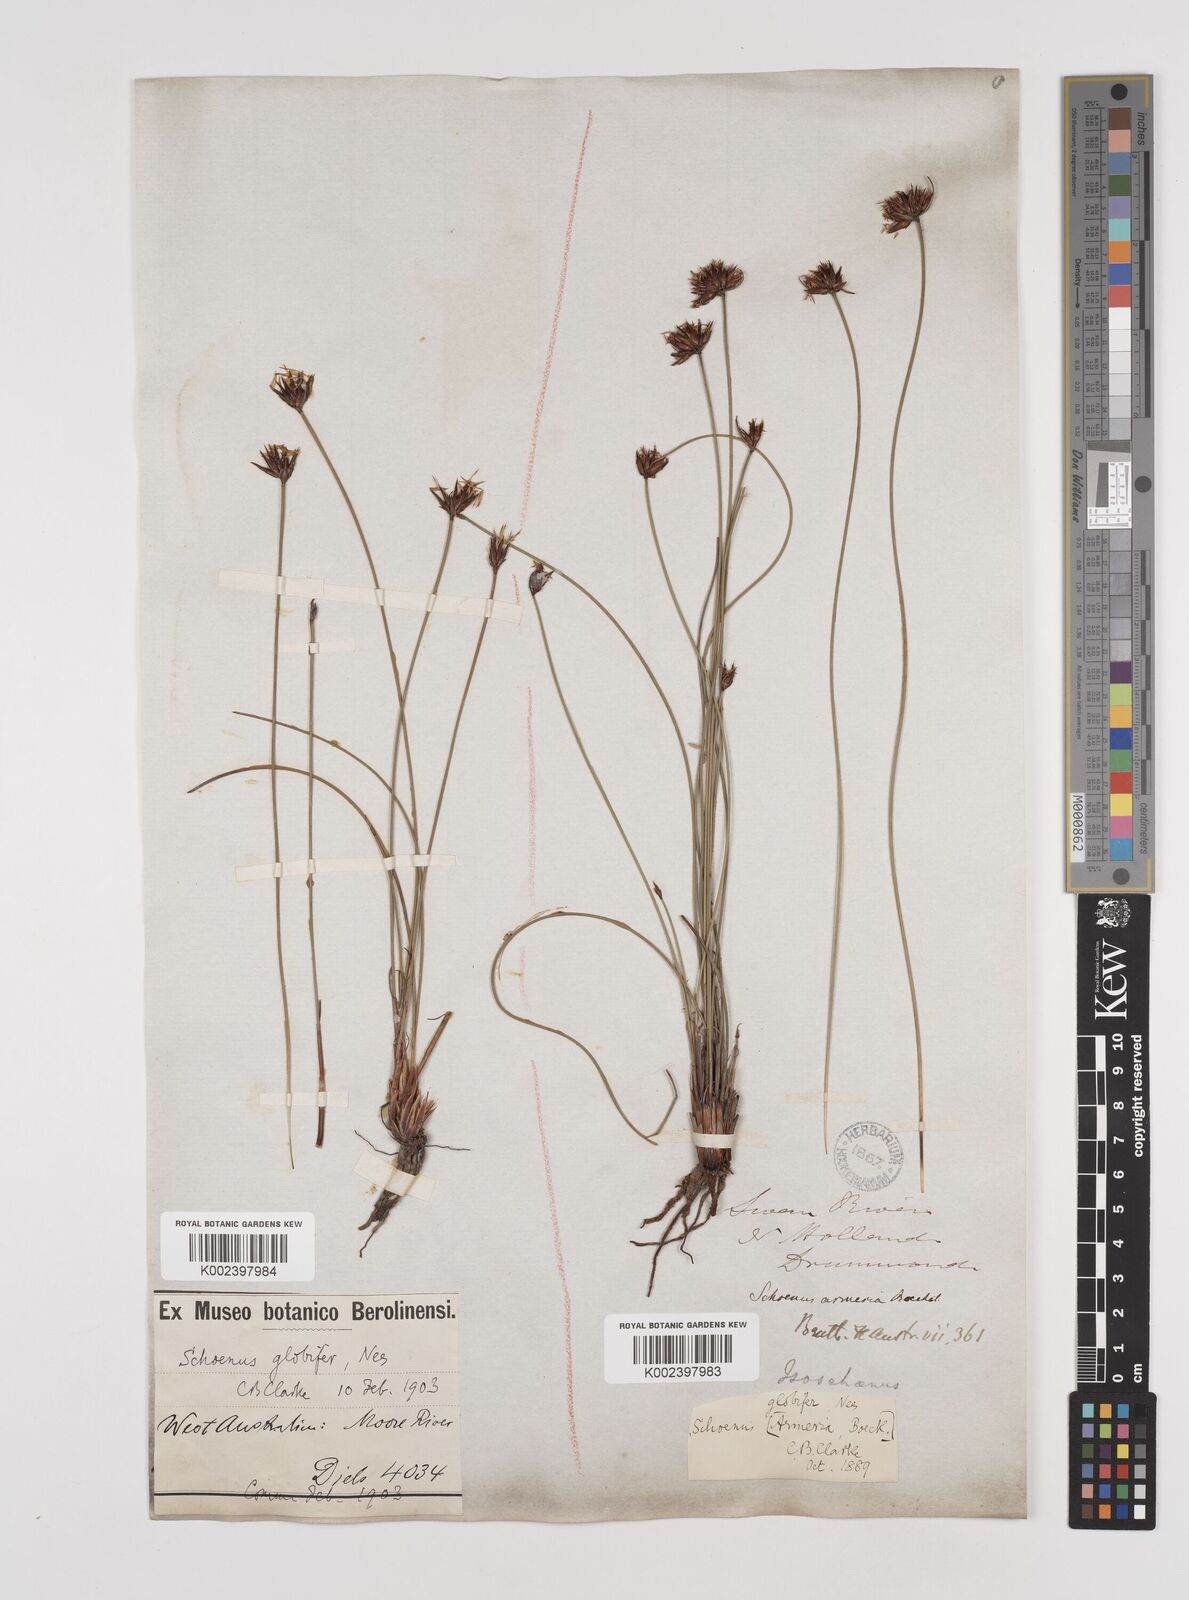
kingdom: Plantae
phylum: Tracheophyta
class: Liliopsida
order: Poales
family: Cyperaceae
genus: Schoenus
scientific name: Schoenus globifer
